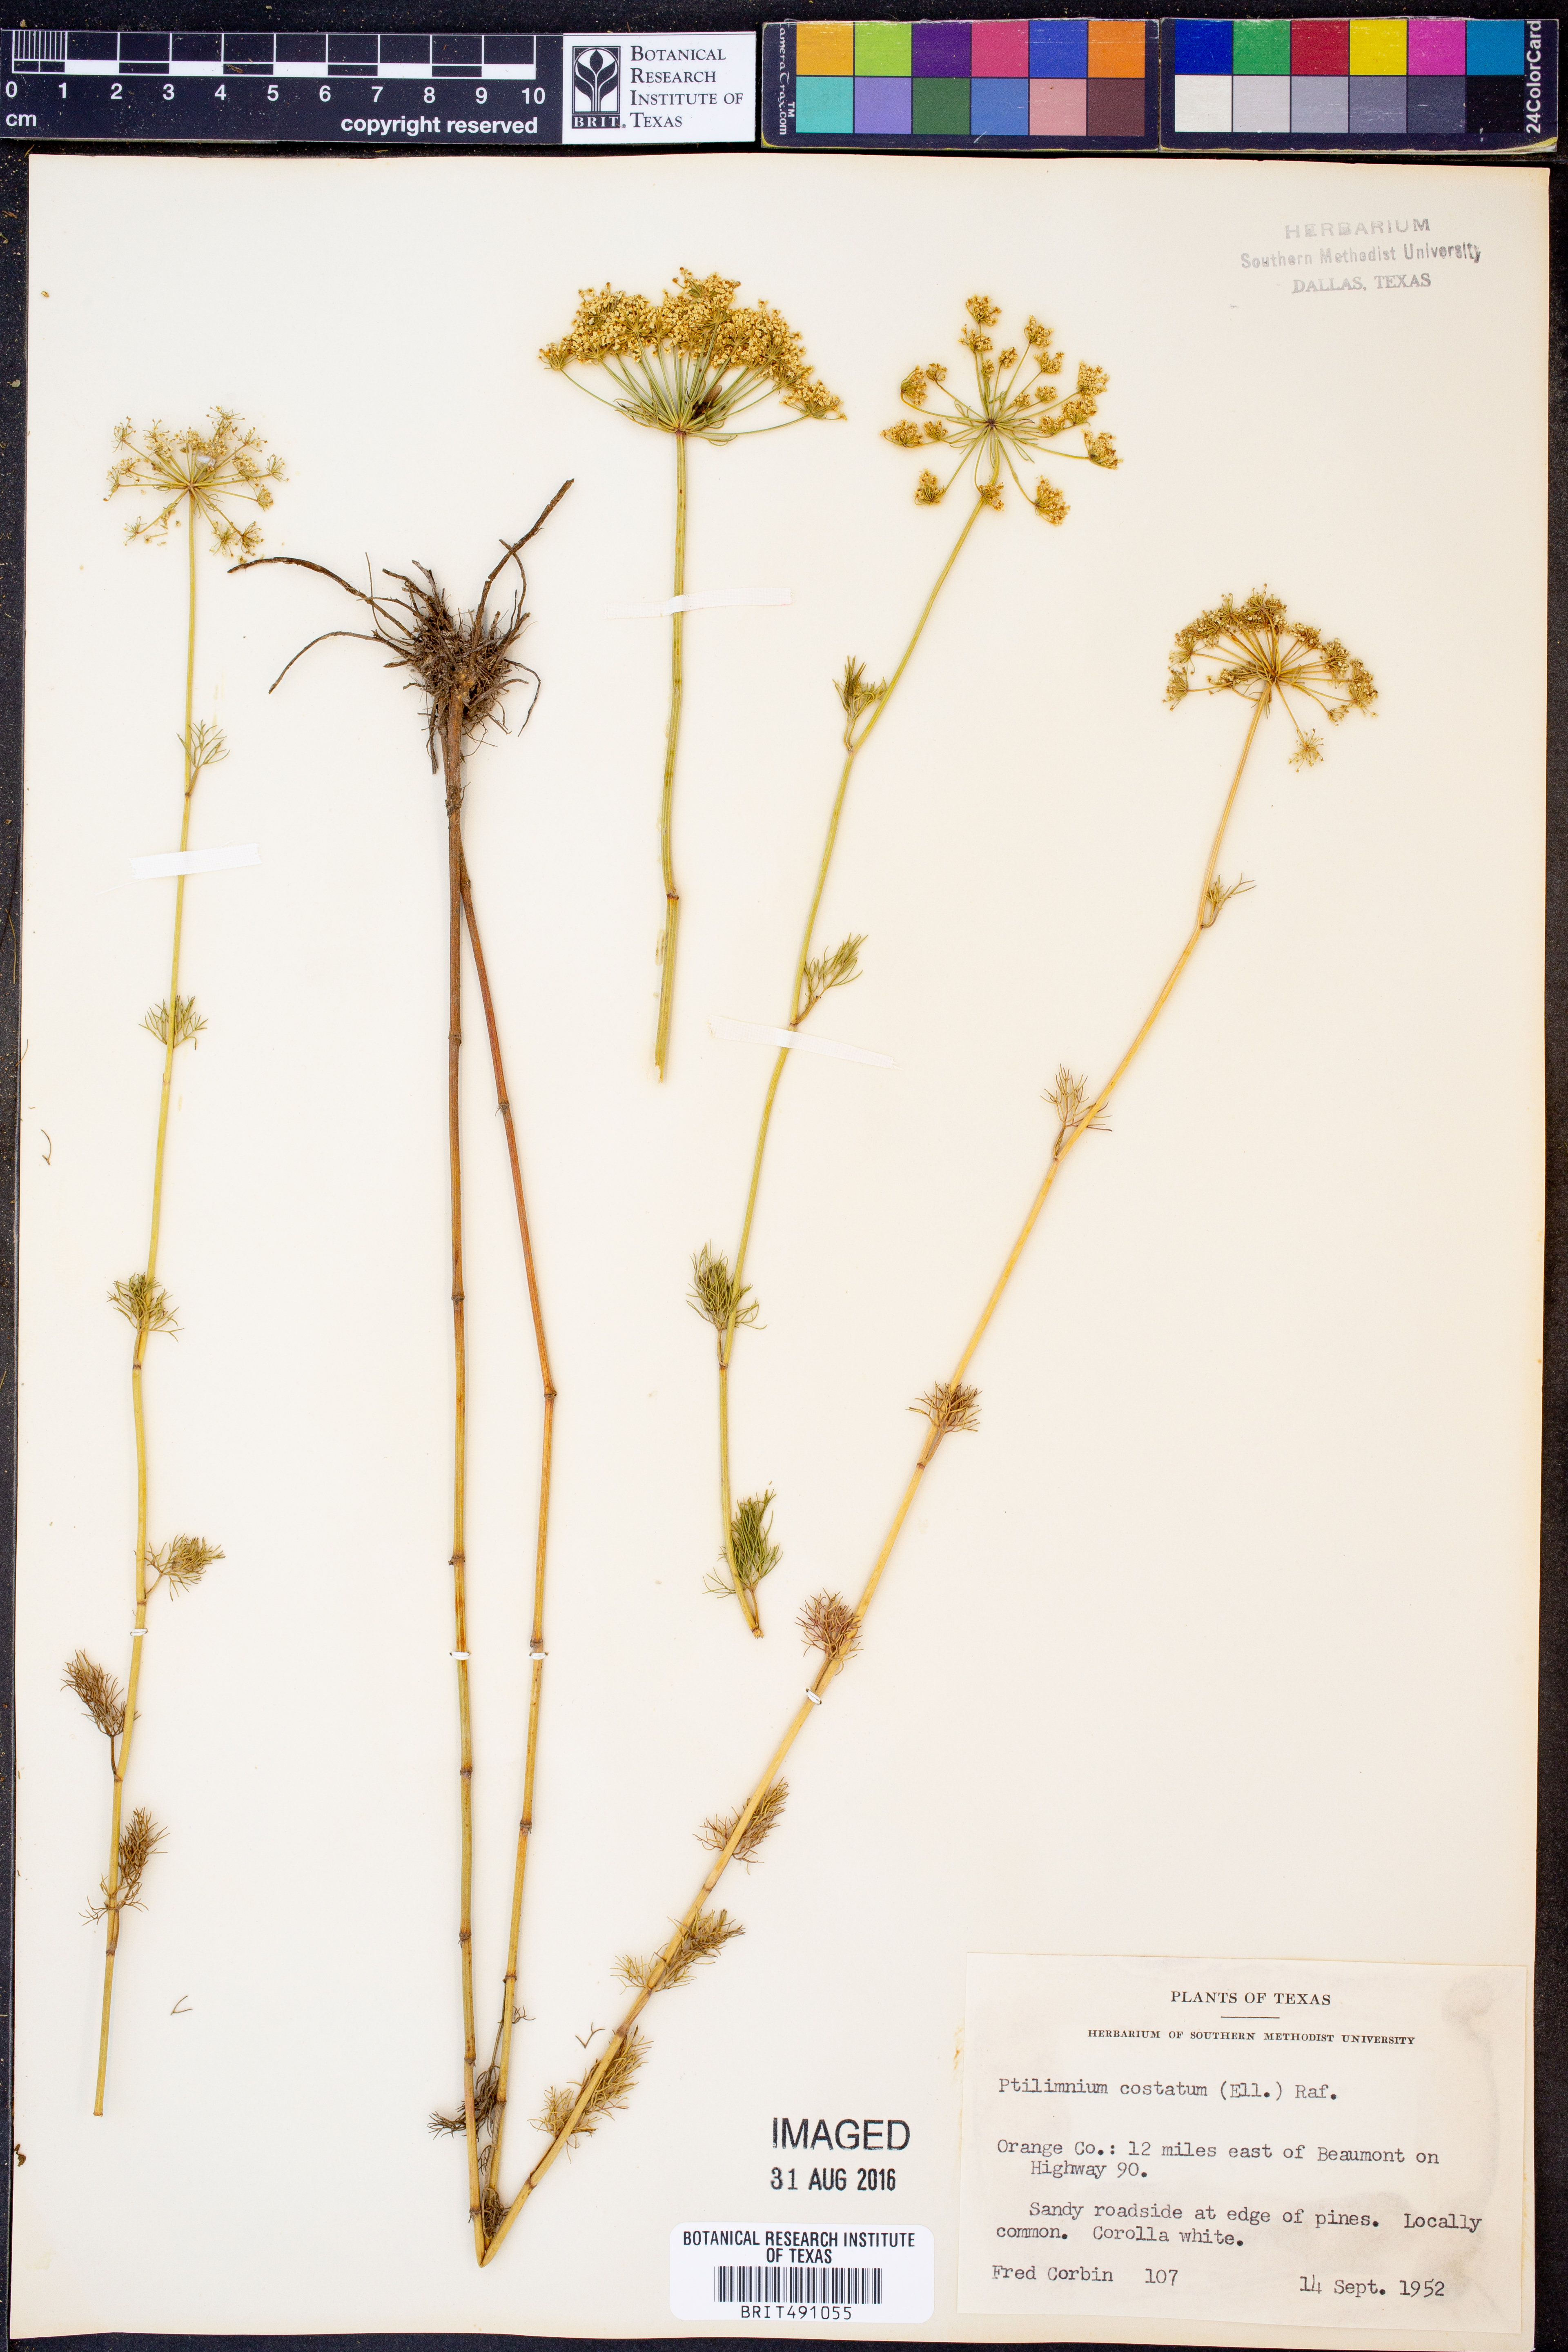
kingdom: Plantae
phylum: Tracheophyta
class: Magnoliopsida
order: Apiales
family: Apiaceae
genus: Ptilimnium
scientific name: Ptilimnium costatum
